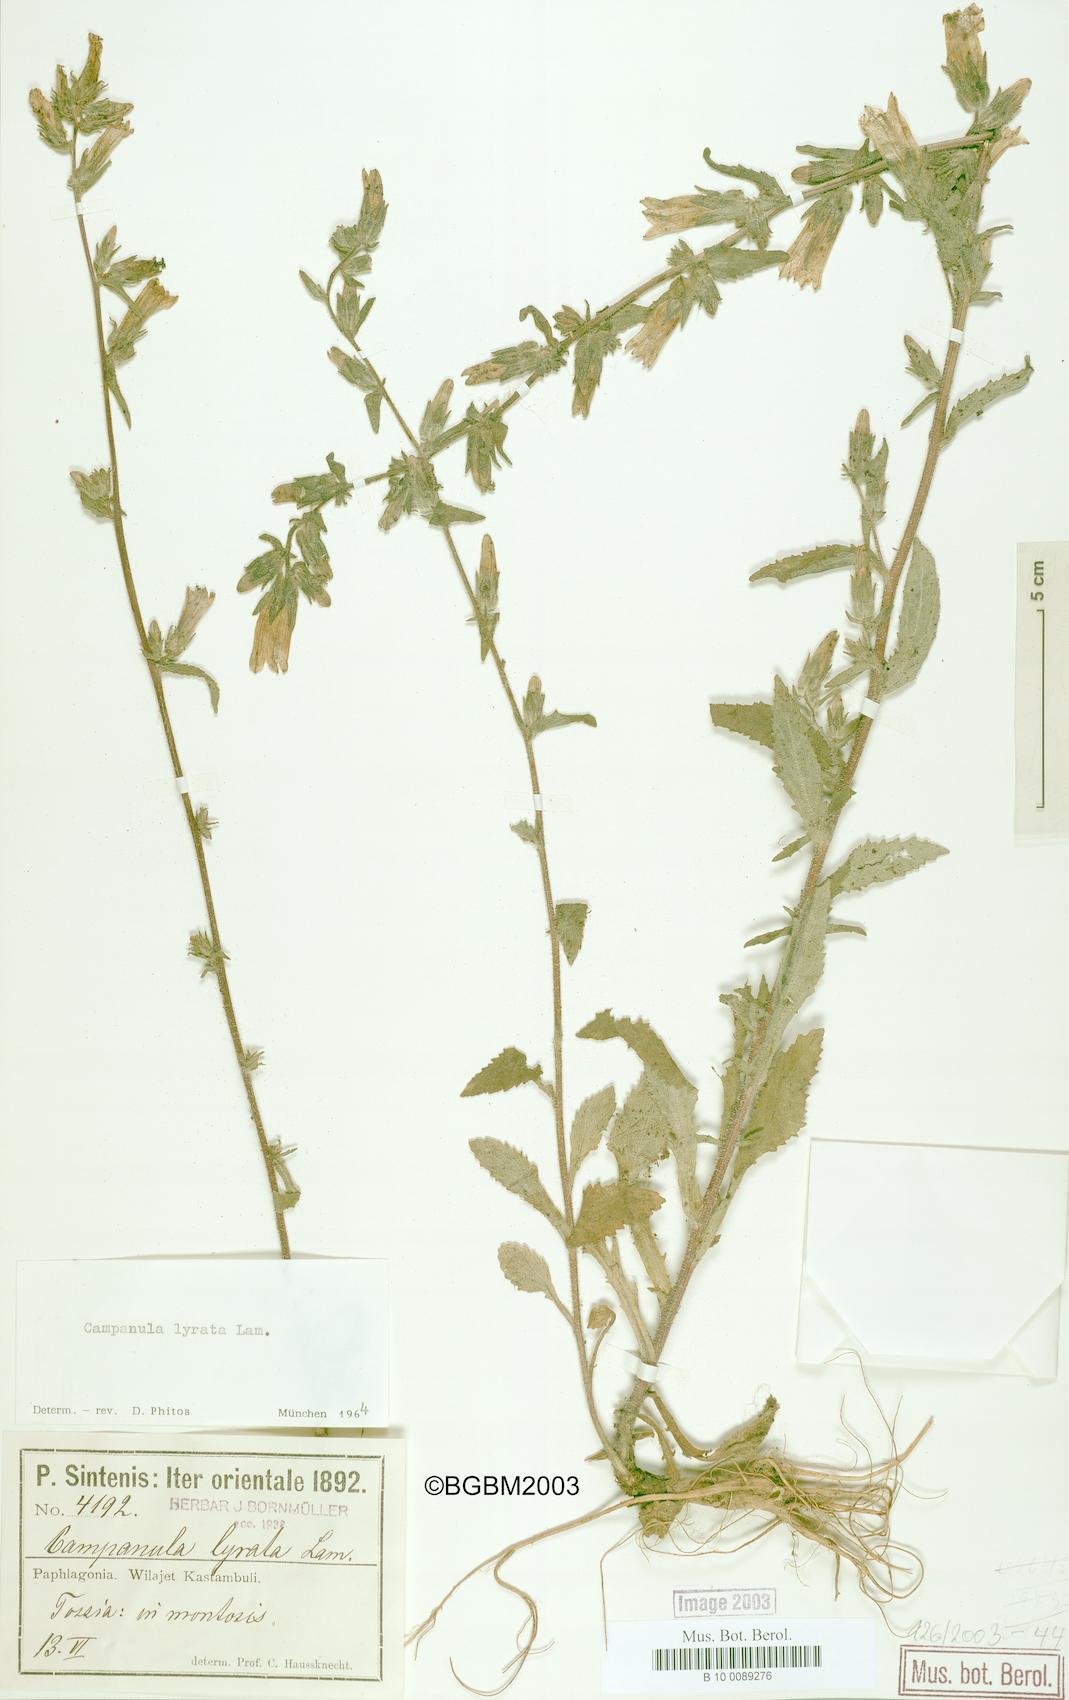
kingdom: Plantae
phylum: Tracheophyta
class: Magnoliopsida
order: Asterales
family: Campanulaceae
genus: Campanula
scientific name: Campanula lyrata
